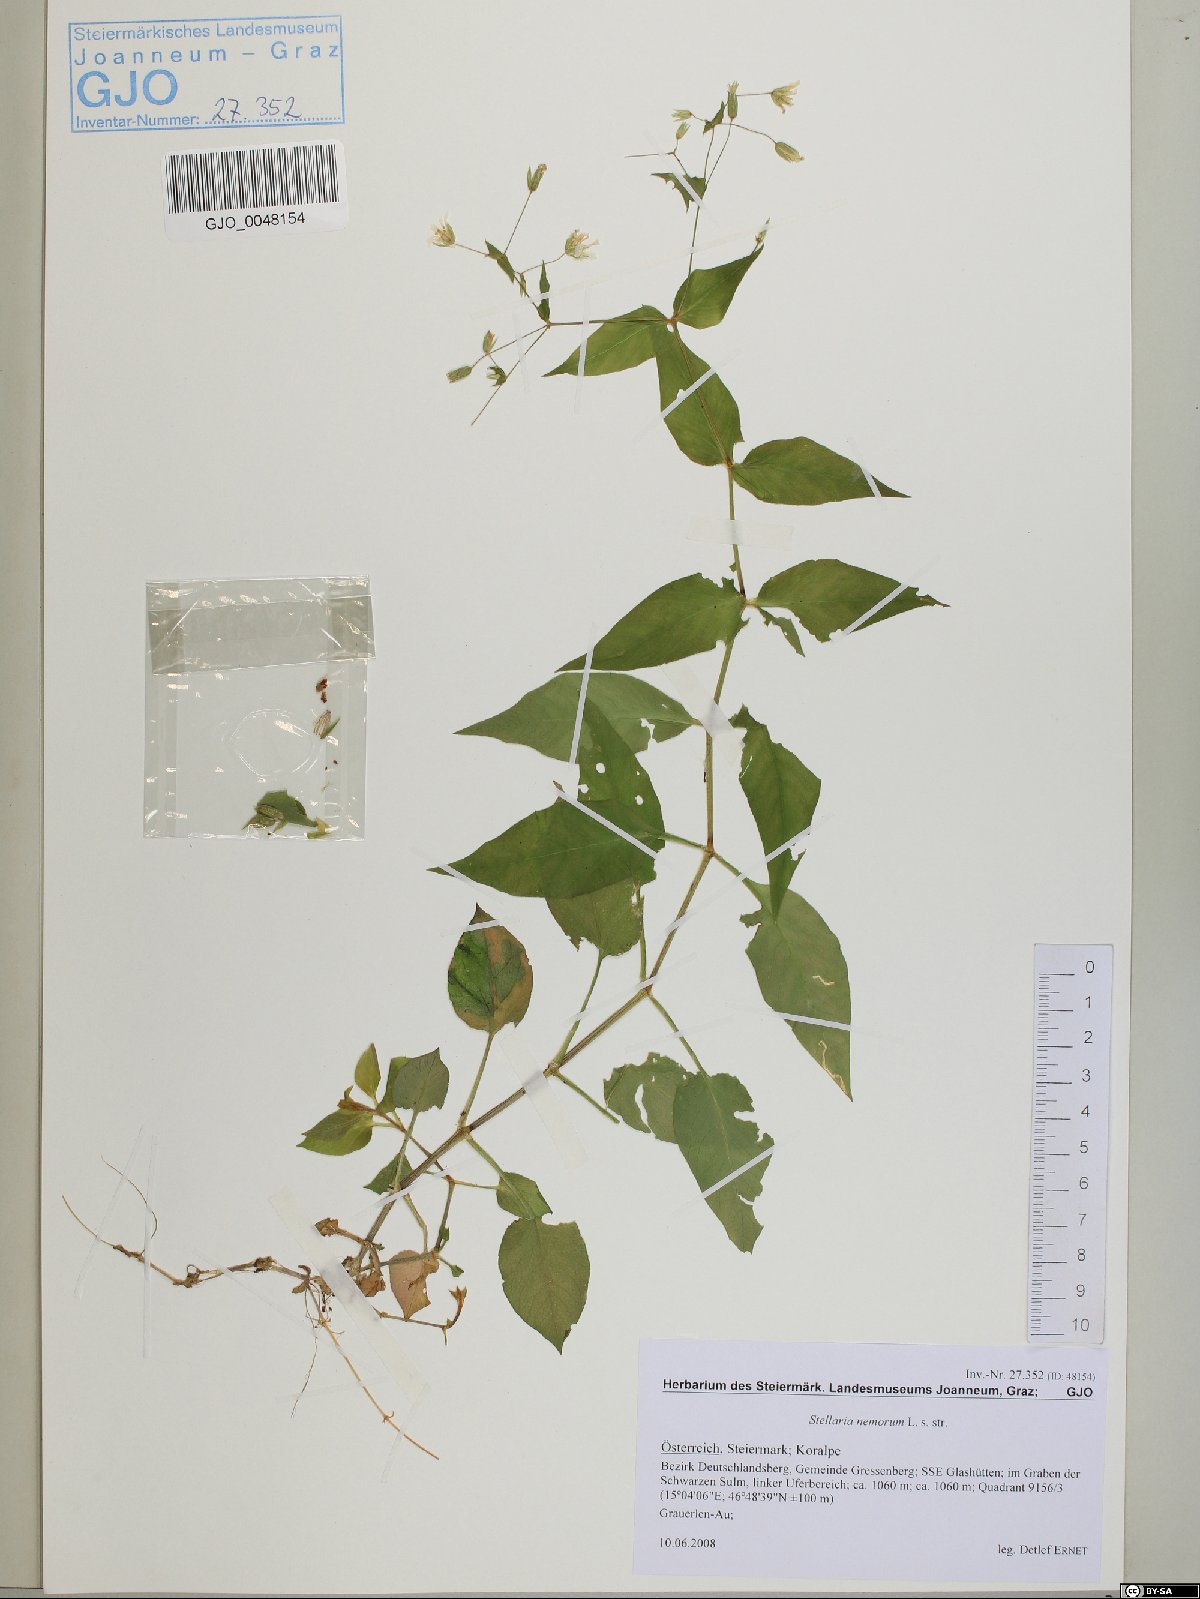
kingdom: Plantae
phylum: Tracheophyta
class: Magnoliopsida
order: Caryophyllales
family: Caryophyllaceae
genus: Stellaria
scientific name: Stellaria nemorum
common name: Wood stitchwort
